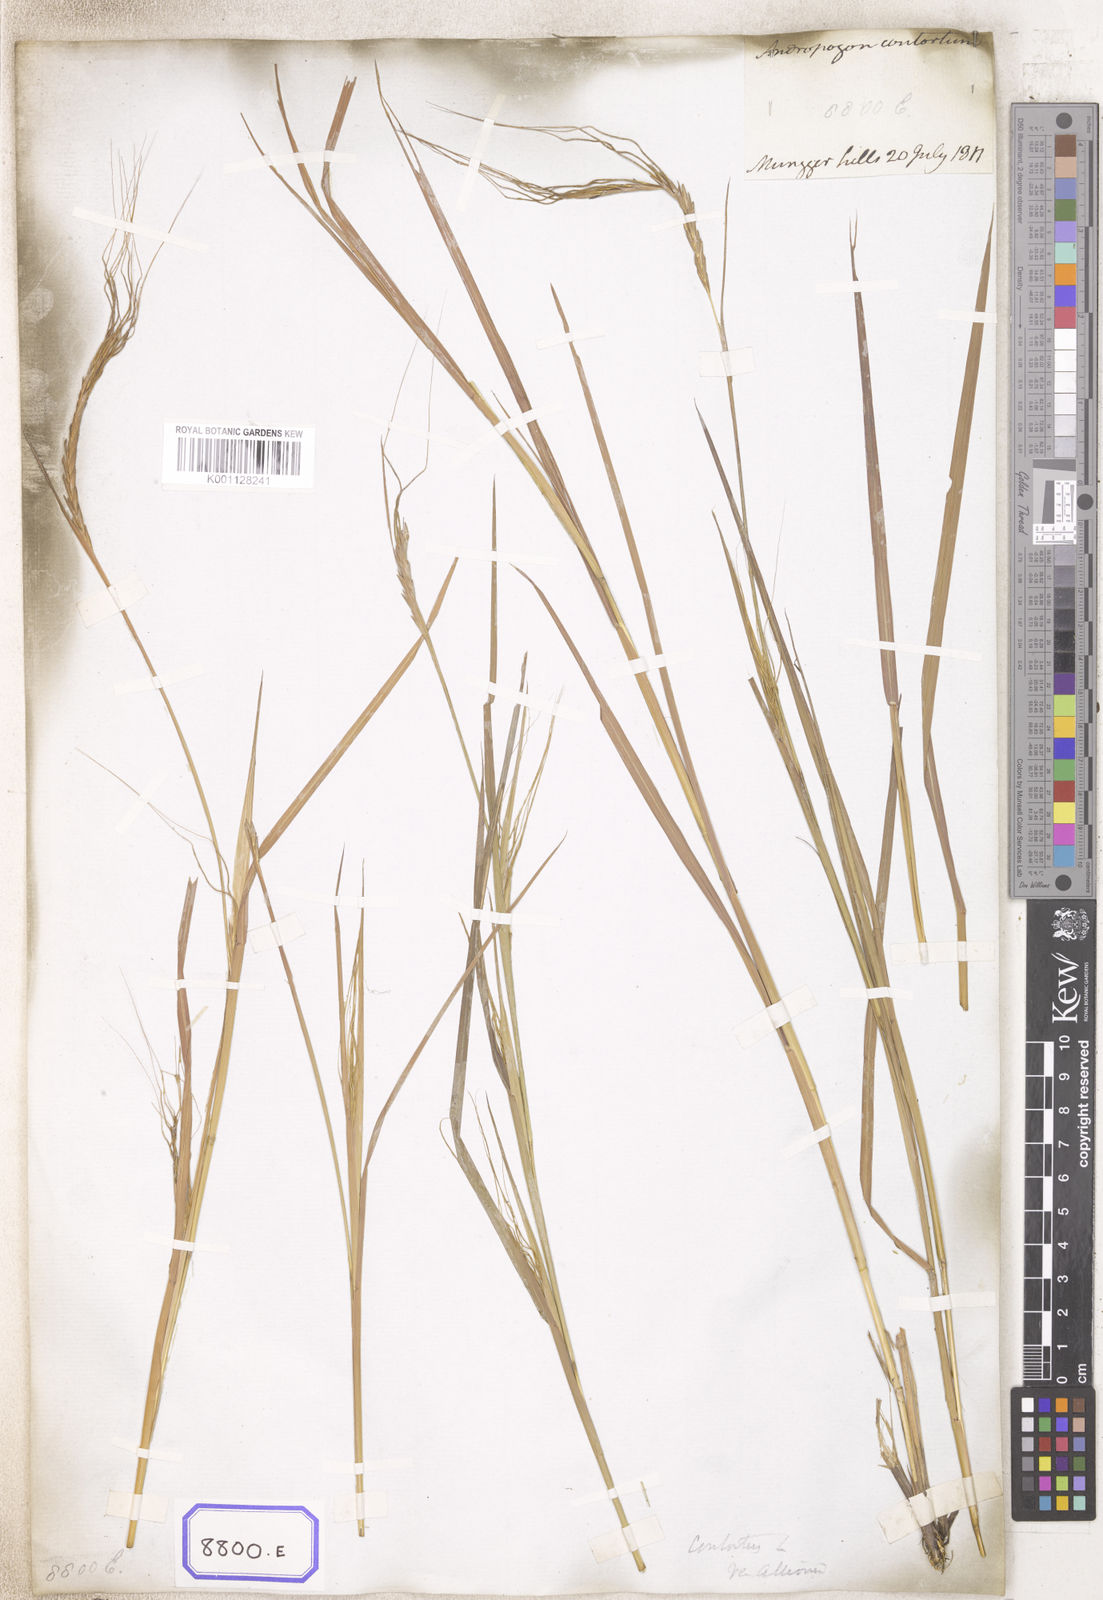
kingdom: Plantae
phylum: Tracheophyta
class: Liliopsida
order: Poales
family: Poaceae
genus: Heteropogon
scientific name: Heteropogon contortus
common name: Tanglehead
